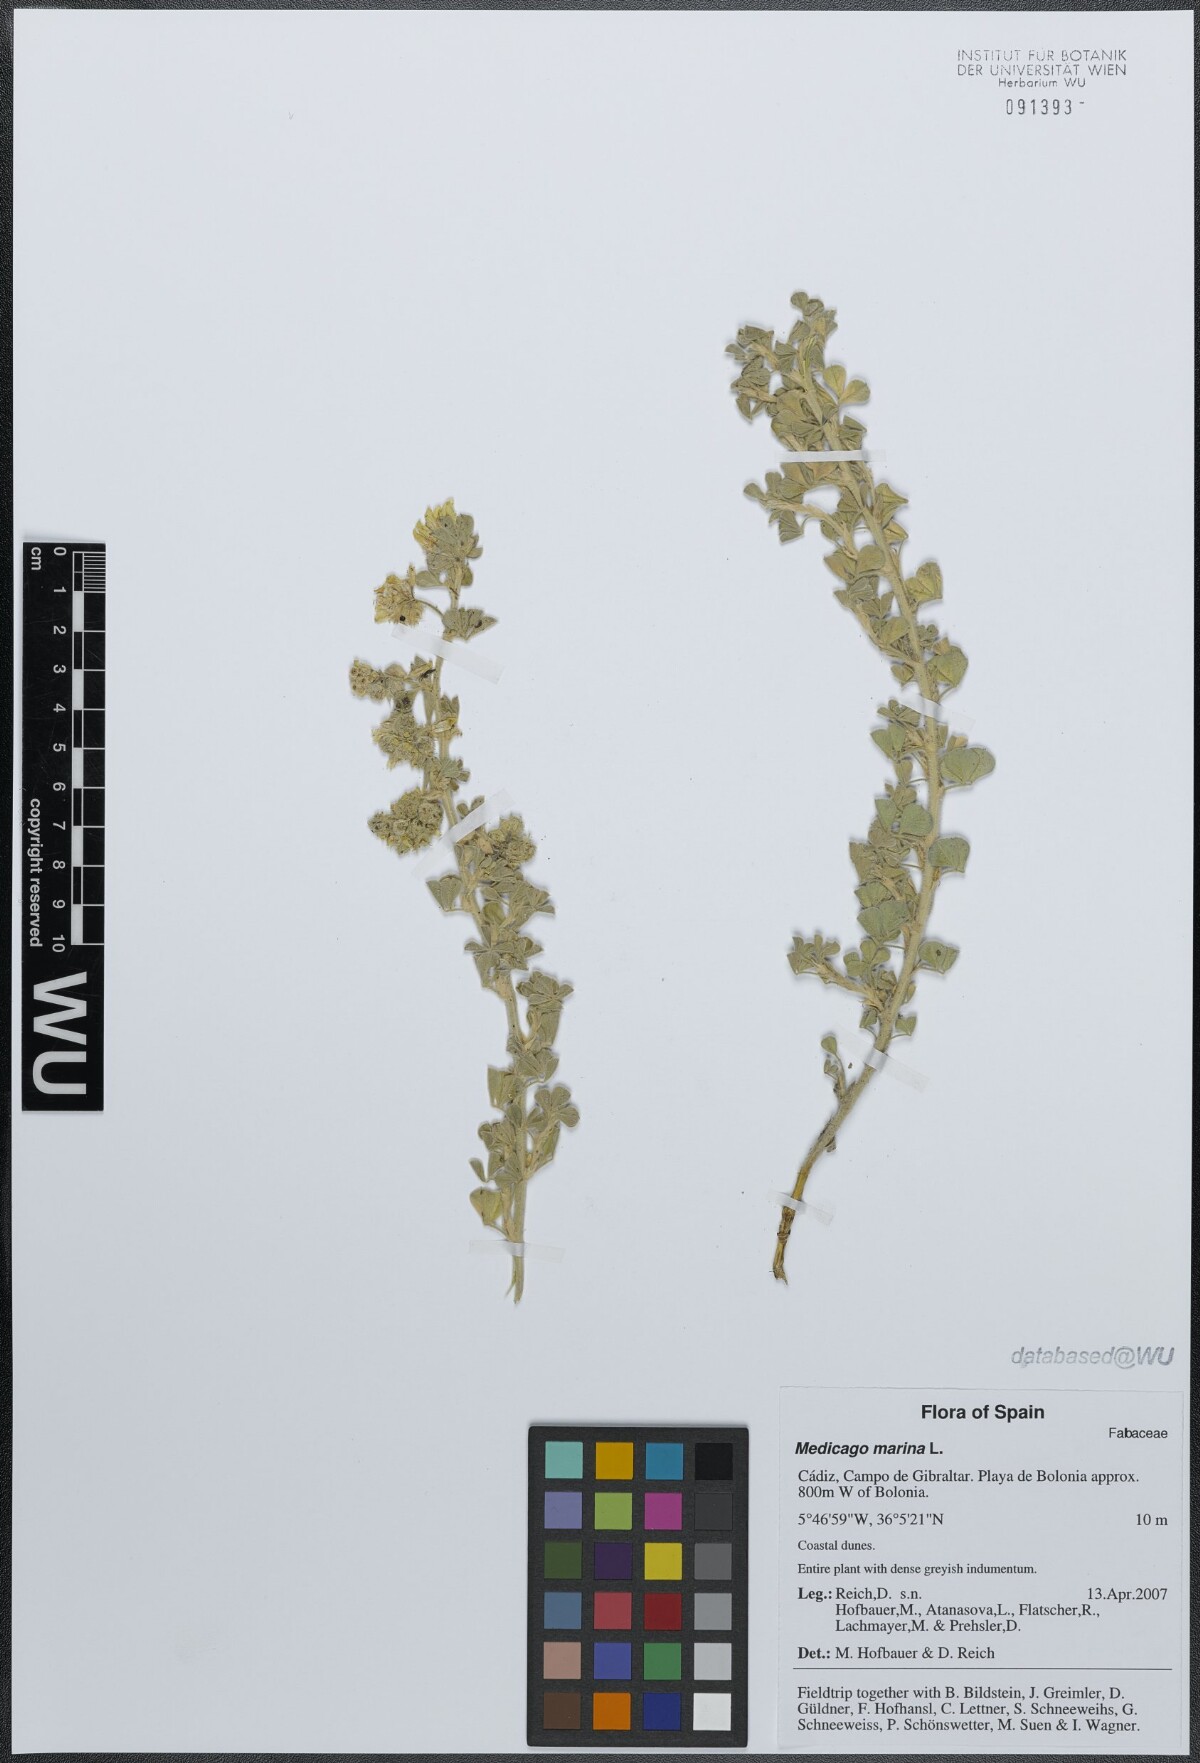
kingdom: Plantae
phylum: Tracheophyta
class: Magnoliopsida
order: Fabales
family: Fabaceae
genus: Medicago
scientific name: Medicago marina
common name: Sea medick
